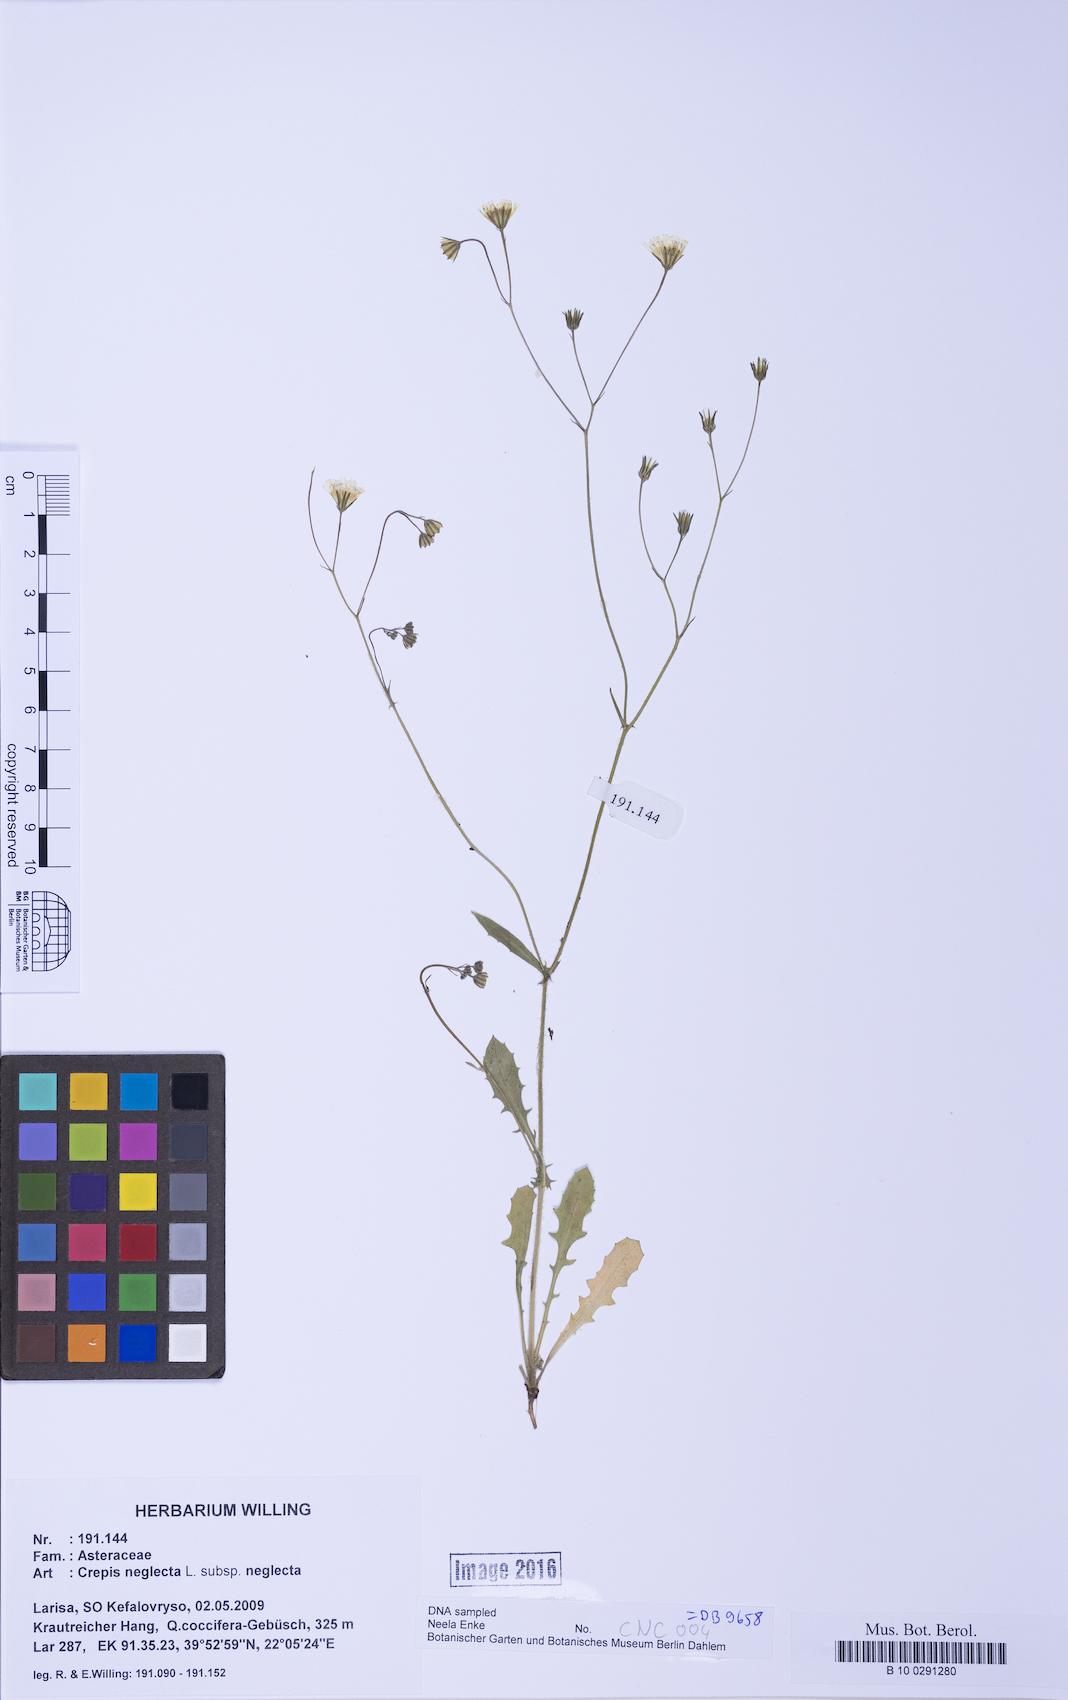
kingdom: Plantae
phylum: Tracheophyta
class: Magnoliopsida
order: Asterales
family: Asteraceae
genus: Crepis
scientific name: Crepis neglecta
